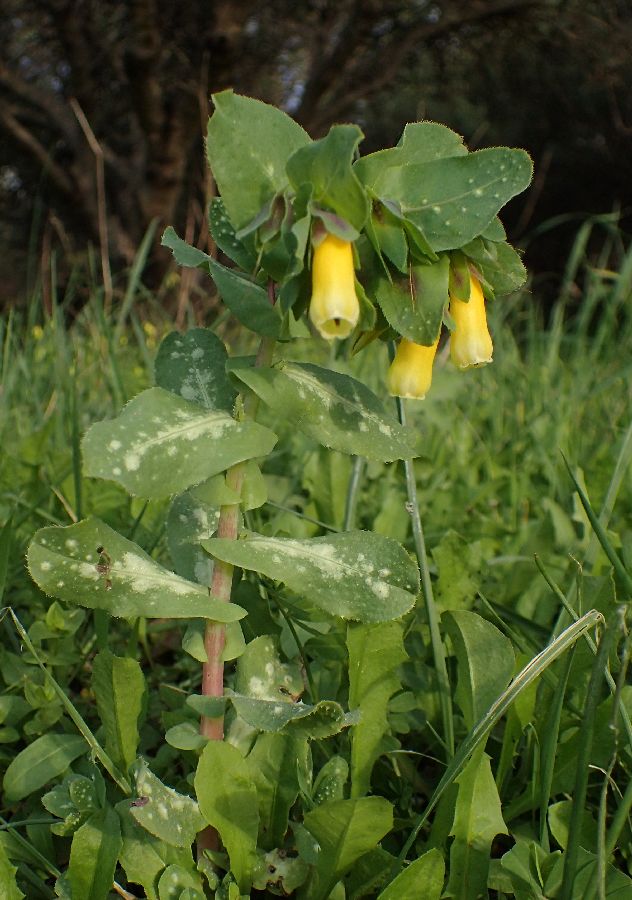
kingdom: Plantae
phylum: Tracheophyta
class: Magnoliopsida
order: Boraginales
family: Boraginaceae
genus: Cerinthe
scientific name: Cerinthe major
